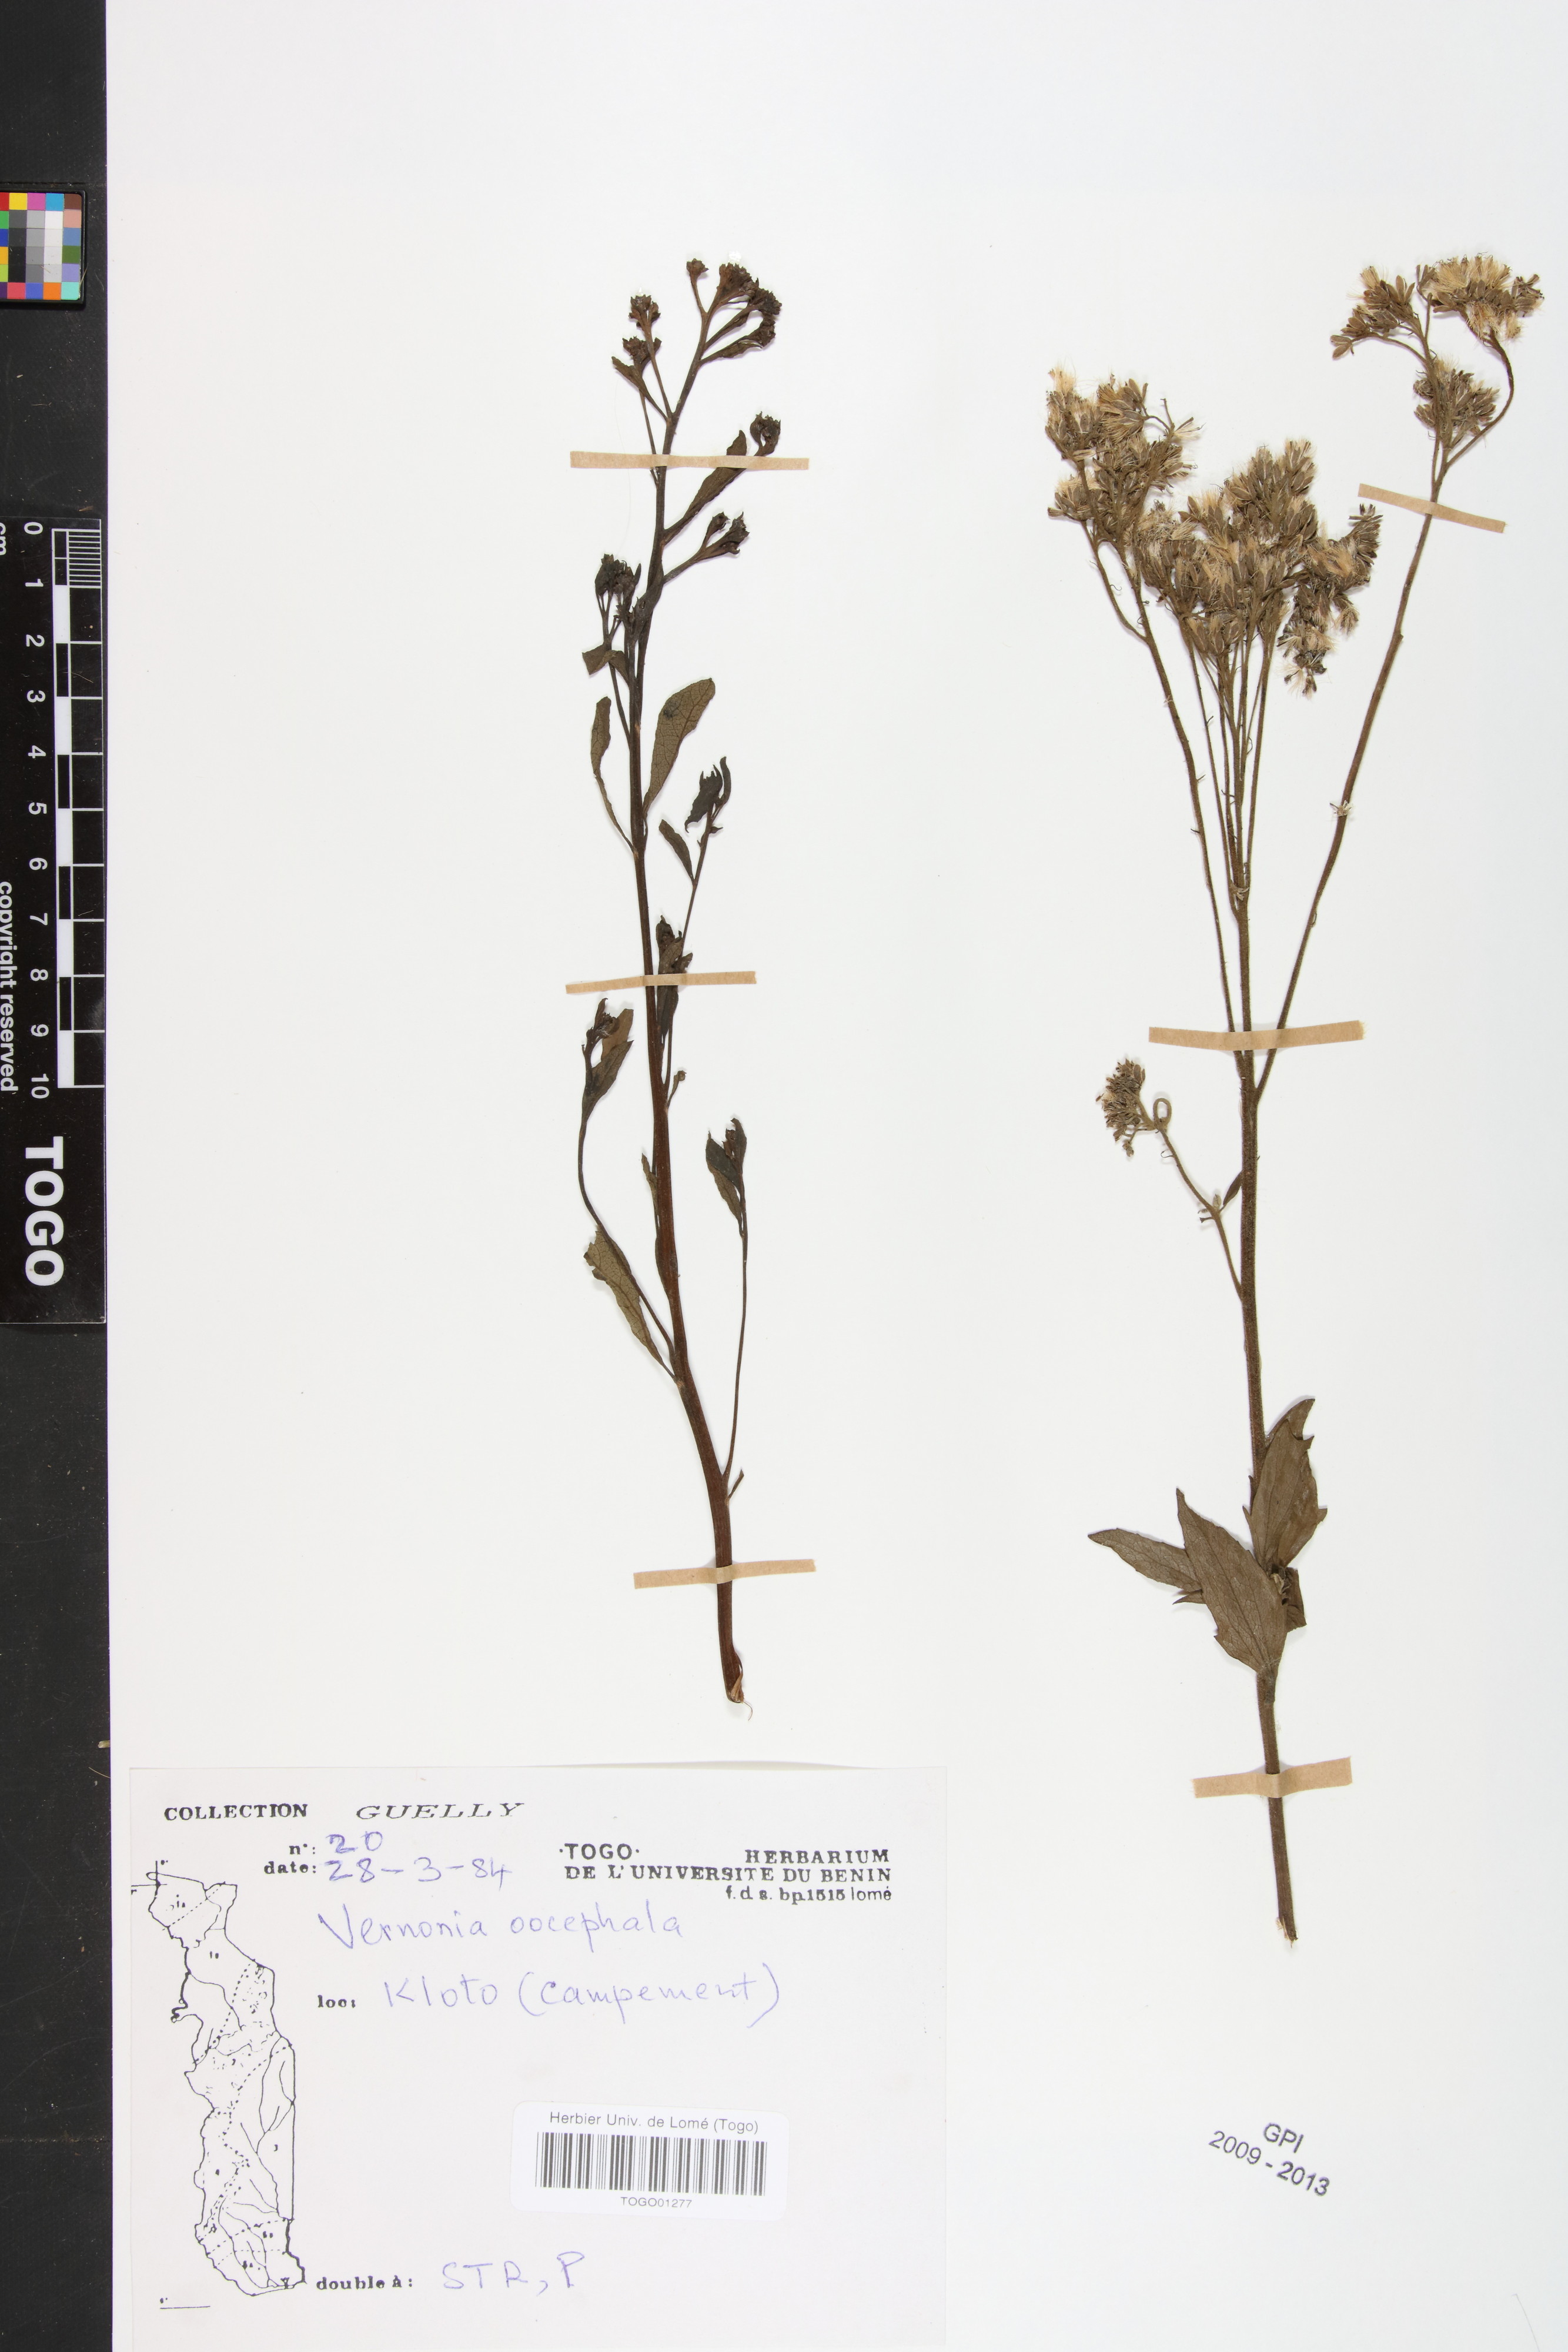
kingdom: Plantae
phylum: Tracheophyta
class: Magnoliopsida
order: Asterales
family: Asteraceae
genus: Oocephala
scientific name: Oocephala stenocephala
